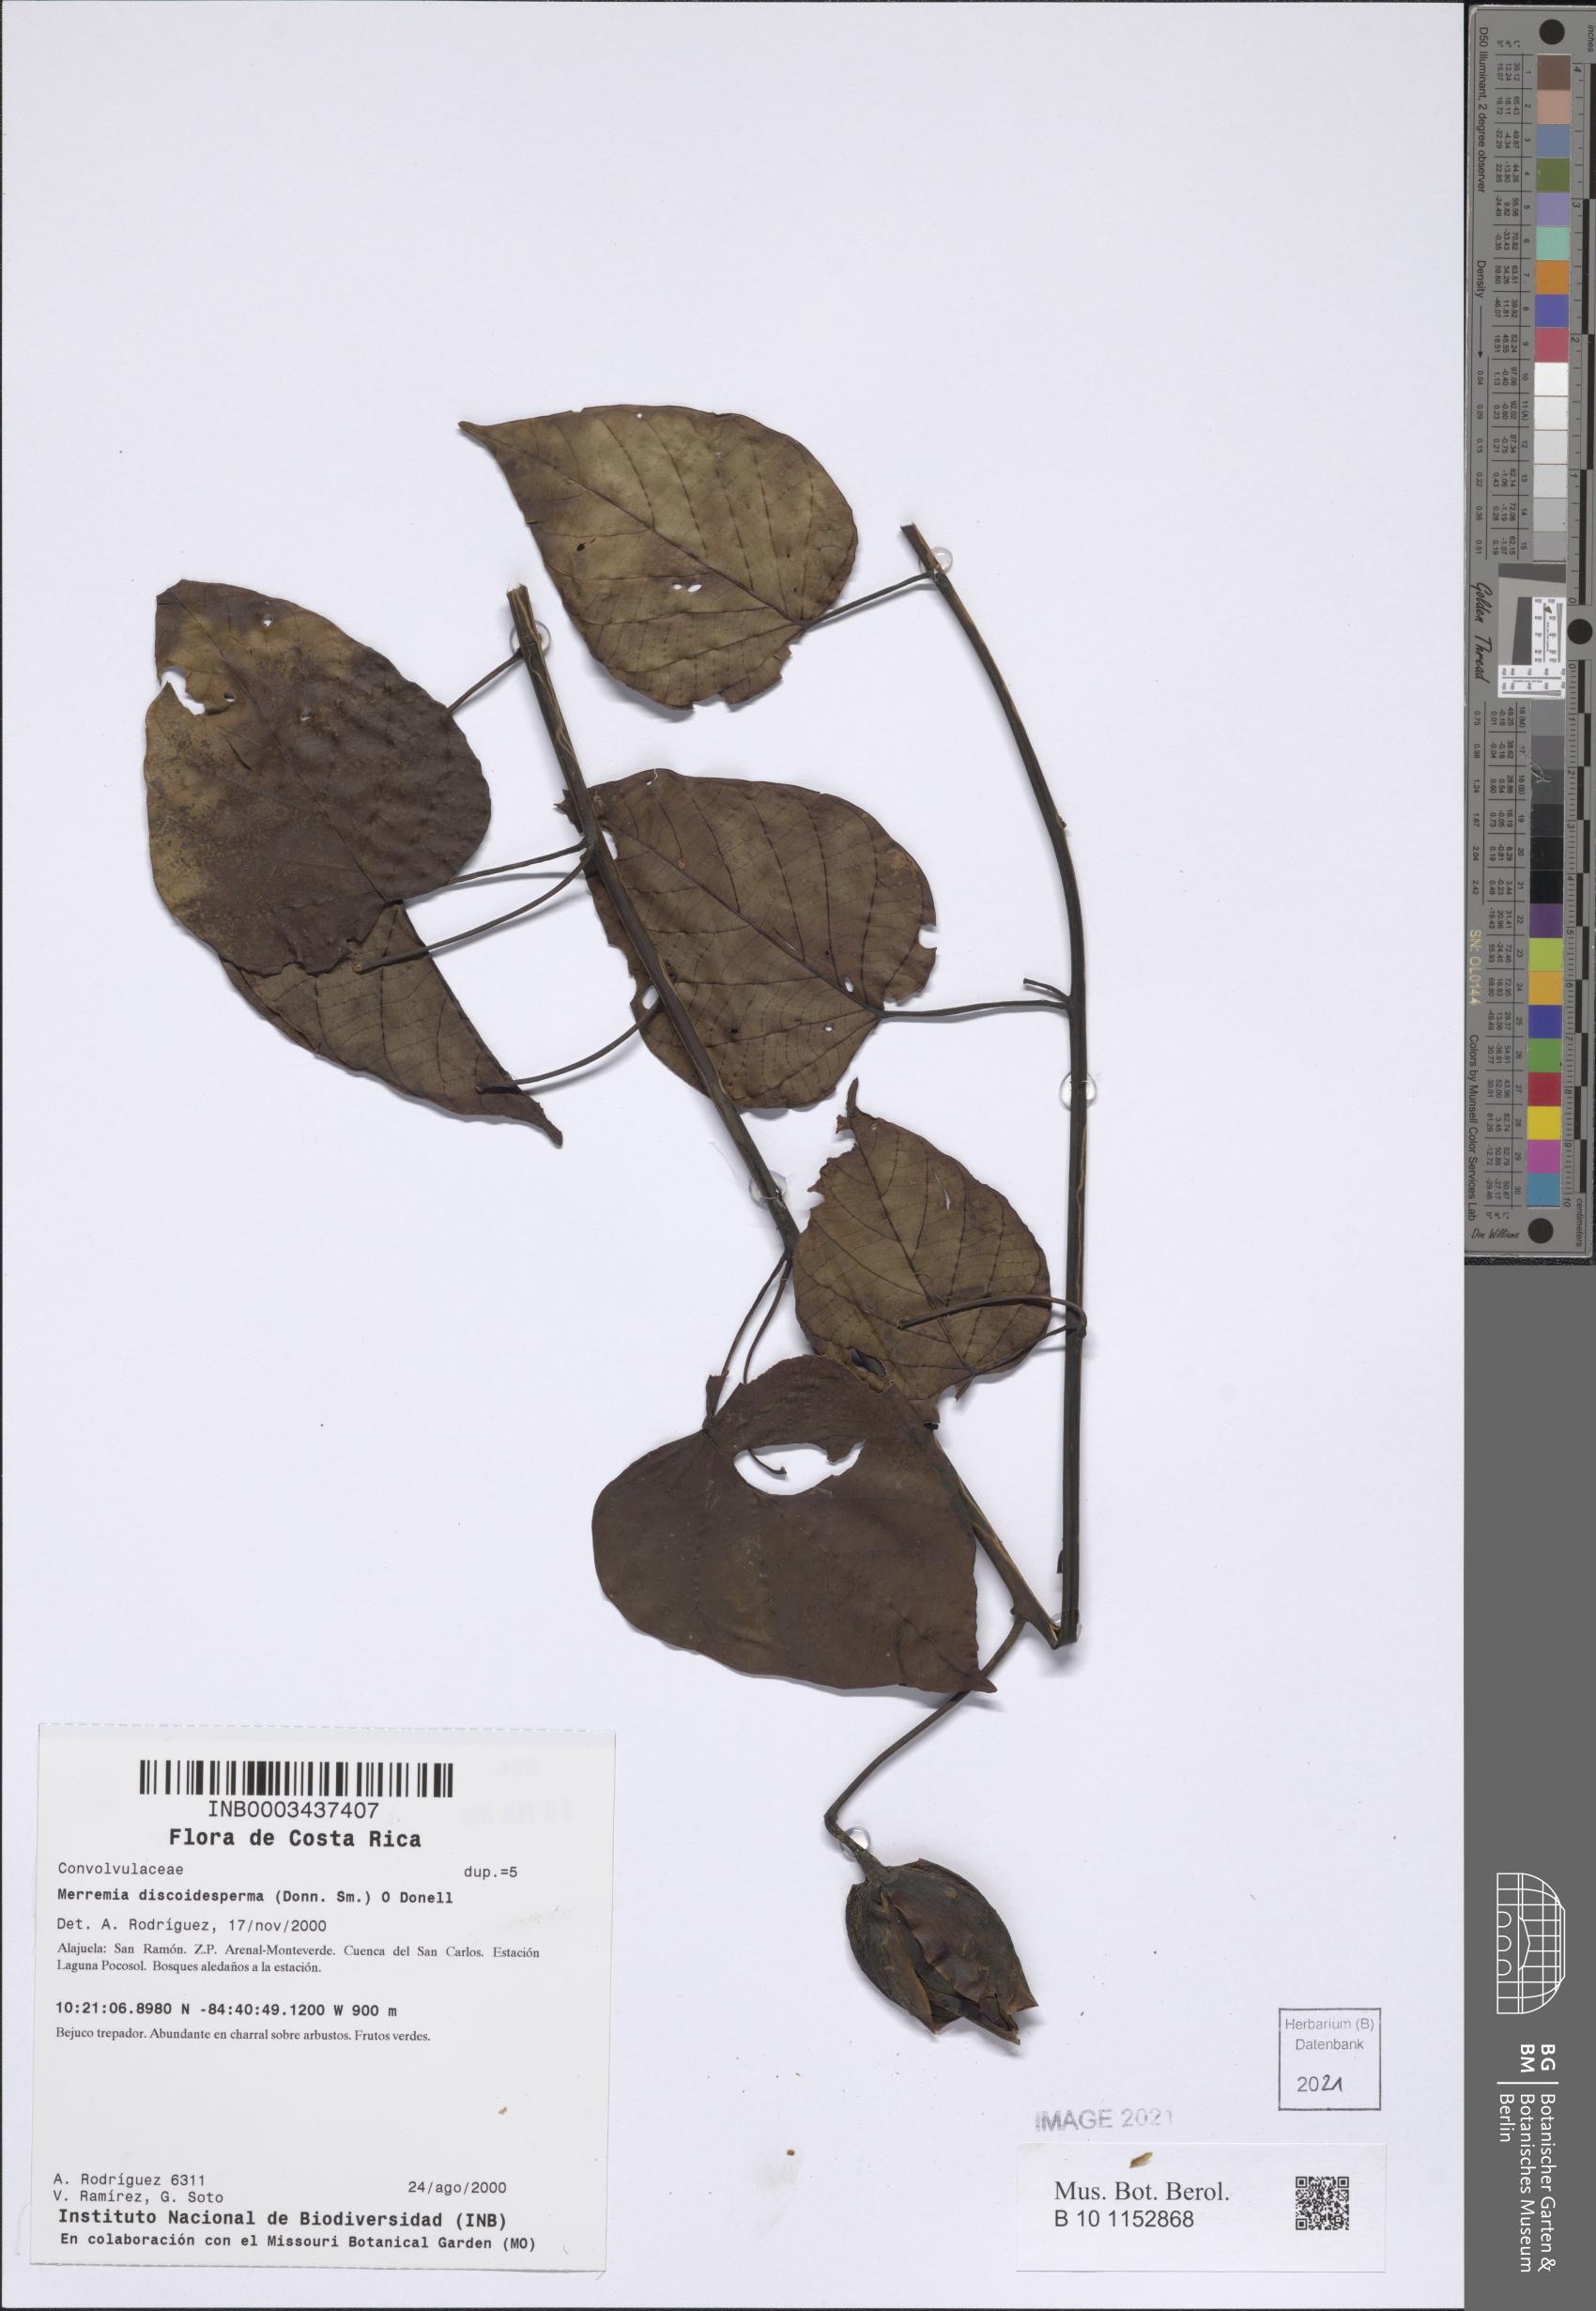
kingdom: Plantae
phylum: Tracheophyta
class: Magnoliopsida
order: Solanales
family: Convolvulaceae
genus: Decalobanthus
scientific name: Decalobanthus discoidespermus
